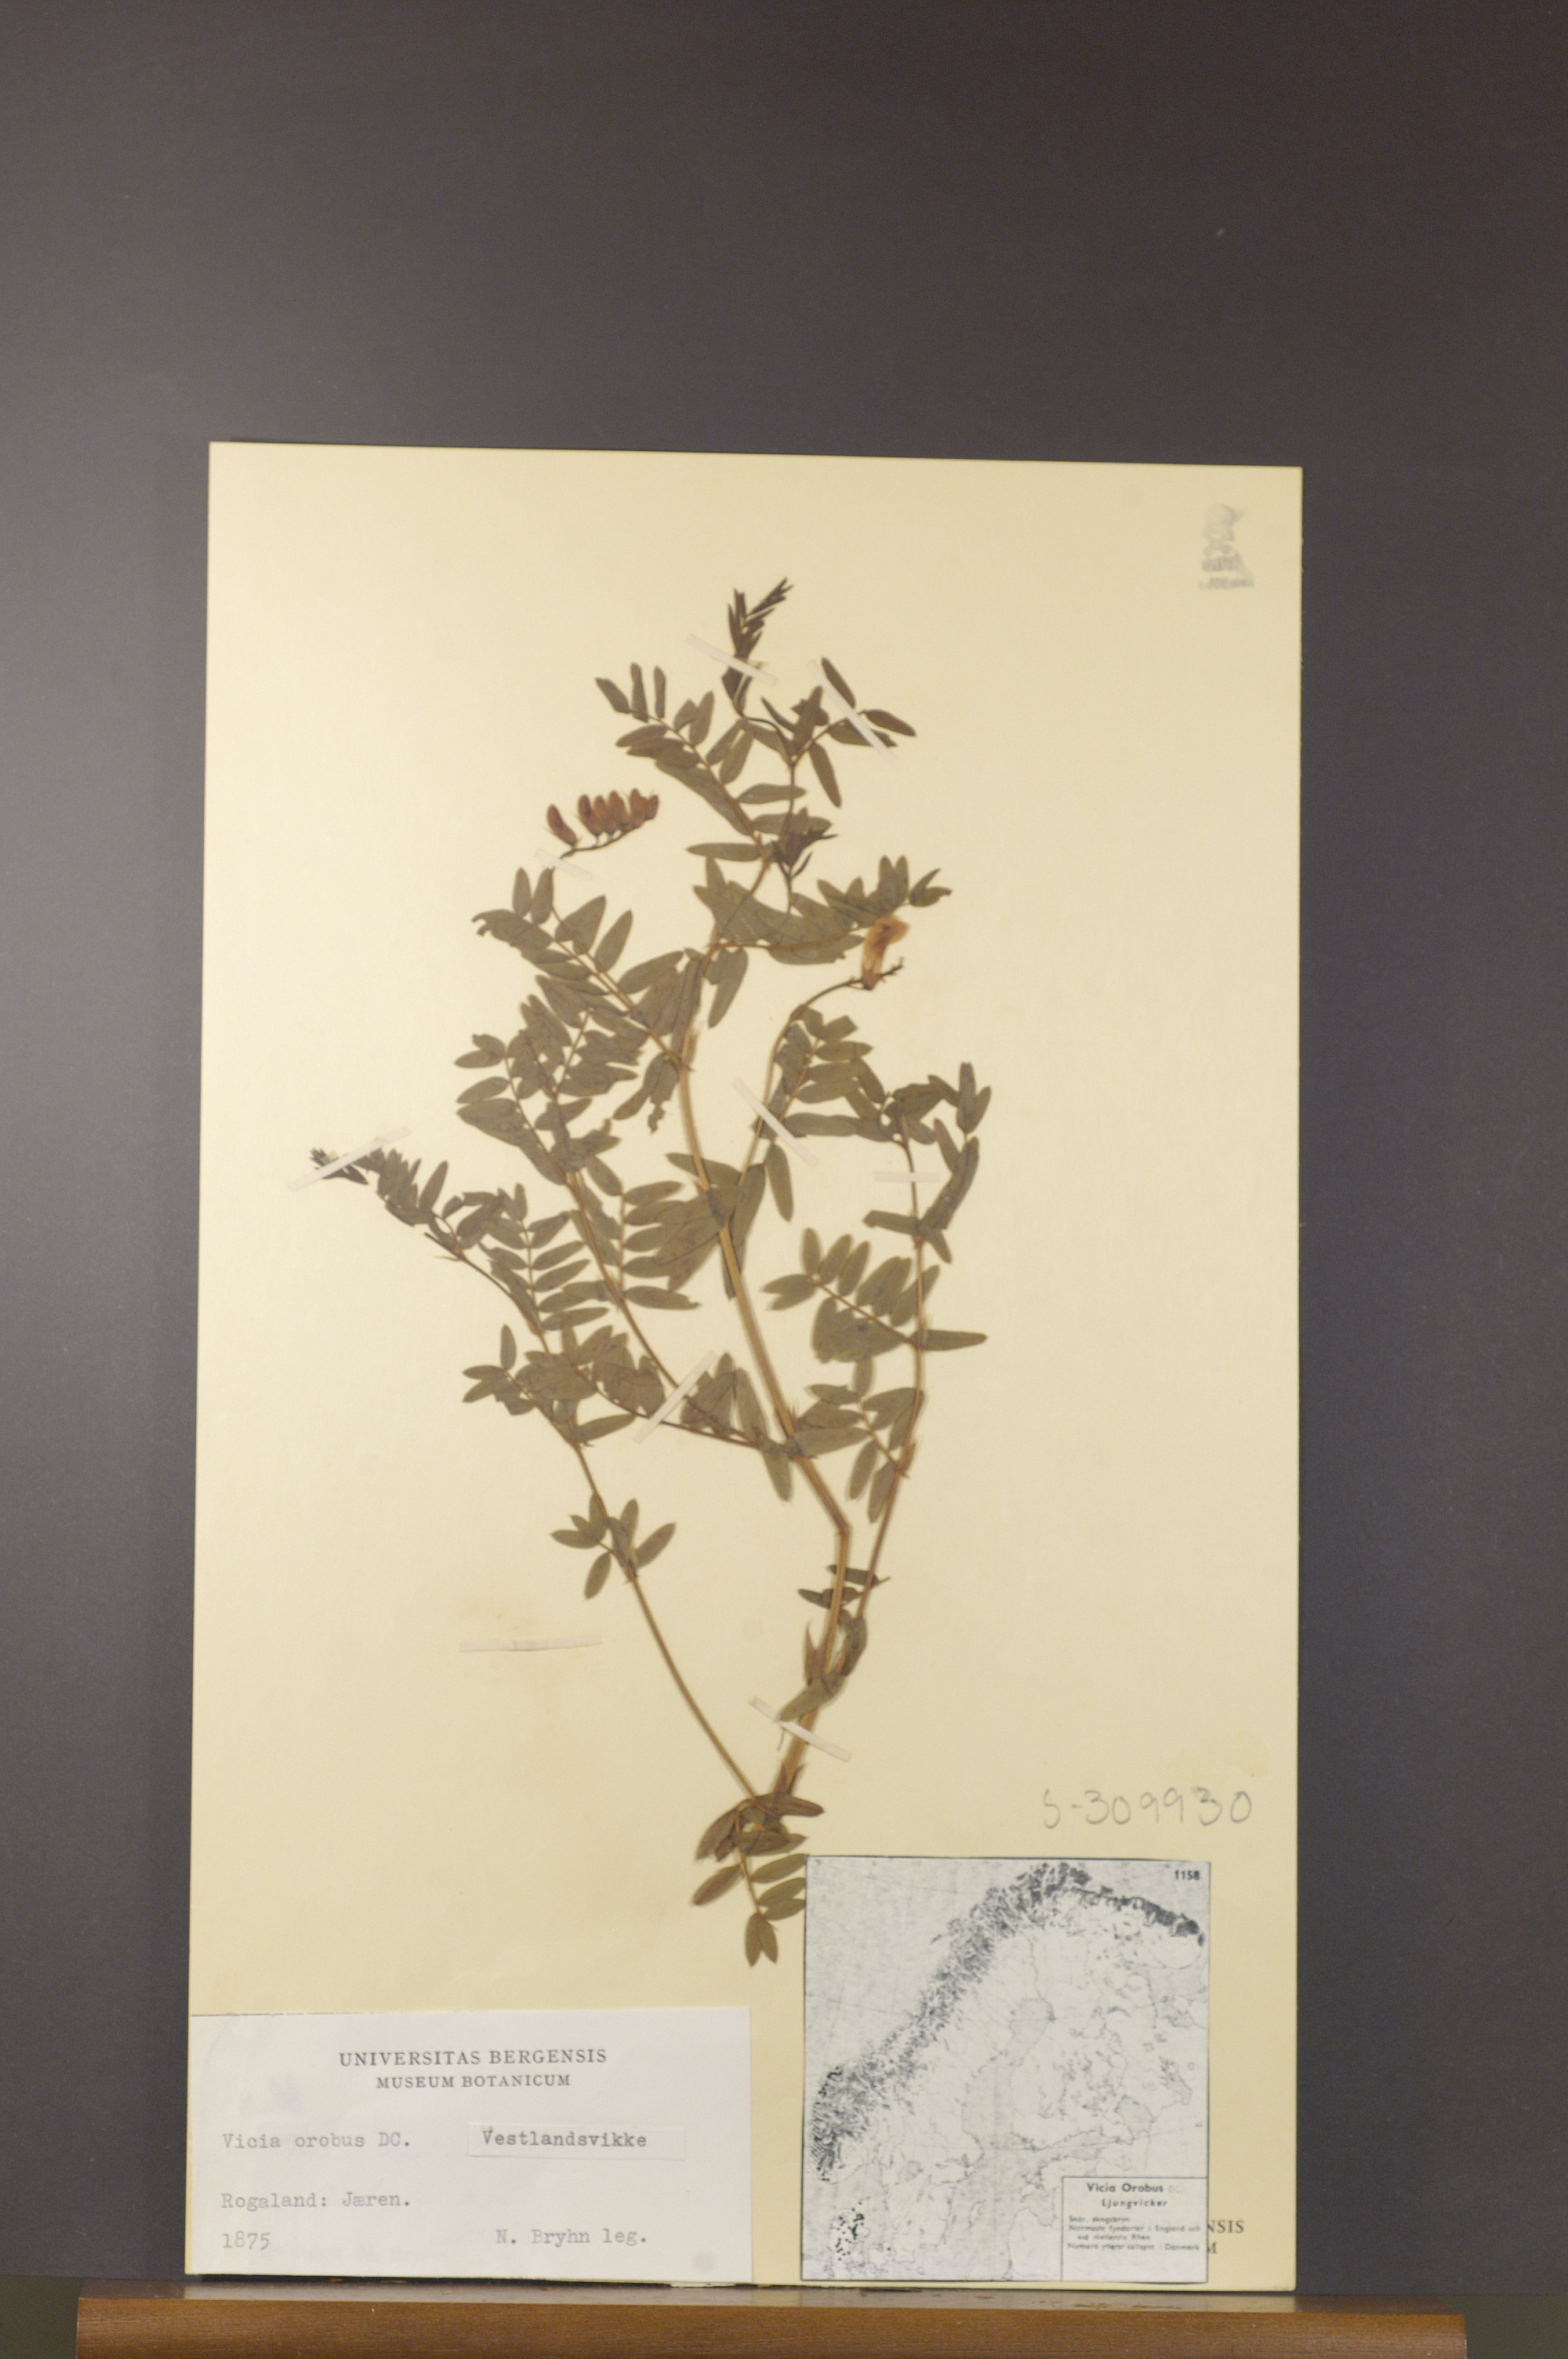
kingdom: Plantae
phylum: Tracheophyta
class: Magnoliopsida
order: Fabales
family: Fabaceae
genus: Vicia
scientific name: Vicia orobus
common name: Wood bitter-vetch
